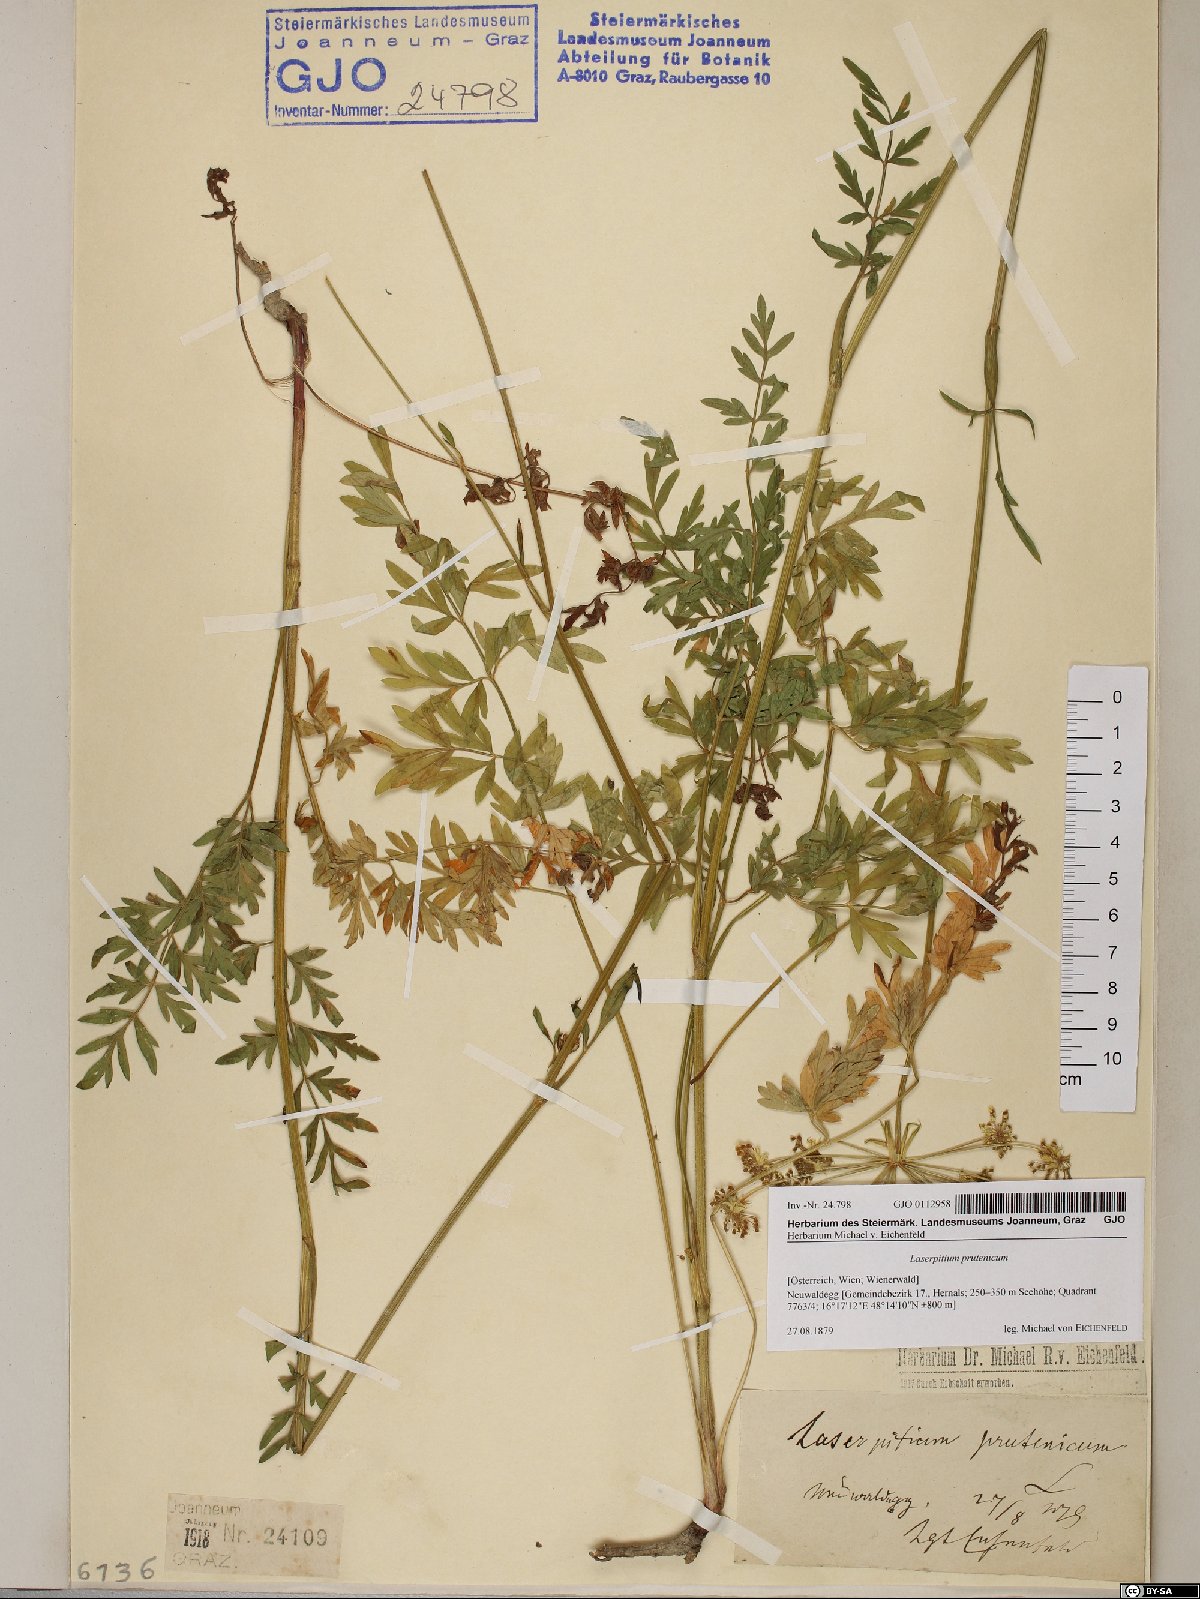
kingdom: Plantae
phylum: Tracheophyta
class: Magnoliopsida
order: Apiales
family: Apiaceae
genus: Silphiodaucus
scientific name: Silphiodaucus prutenicus
